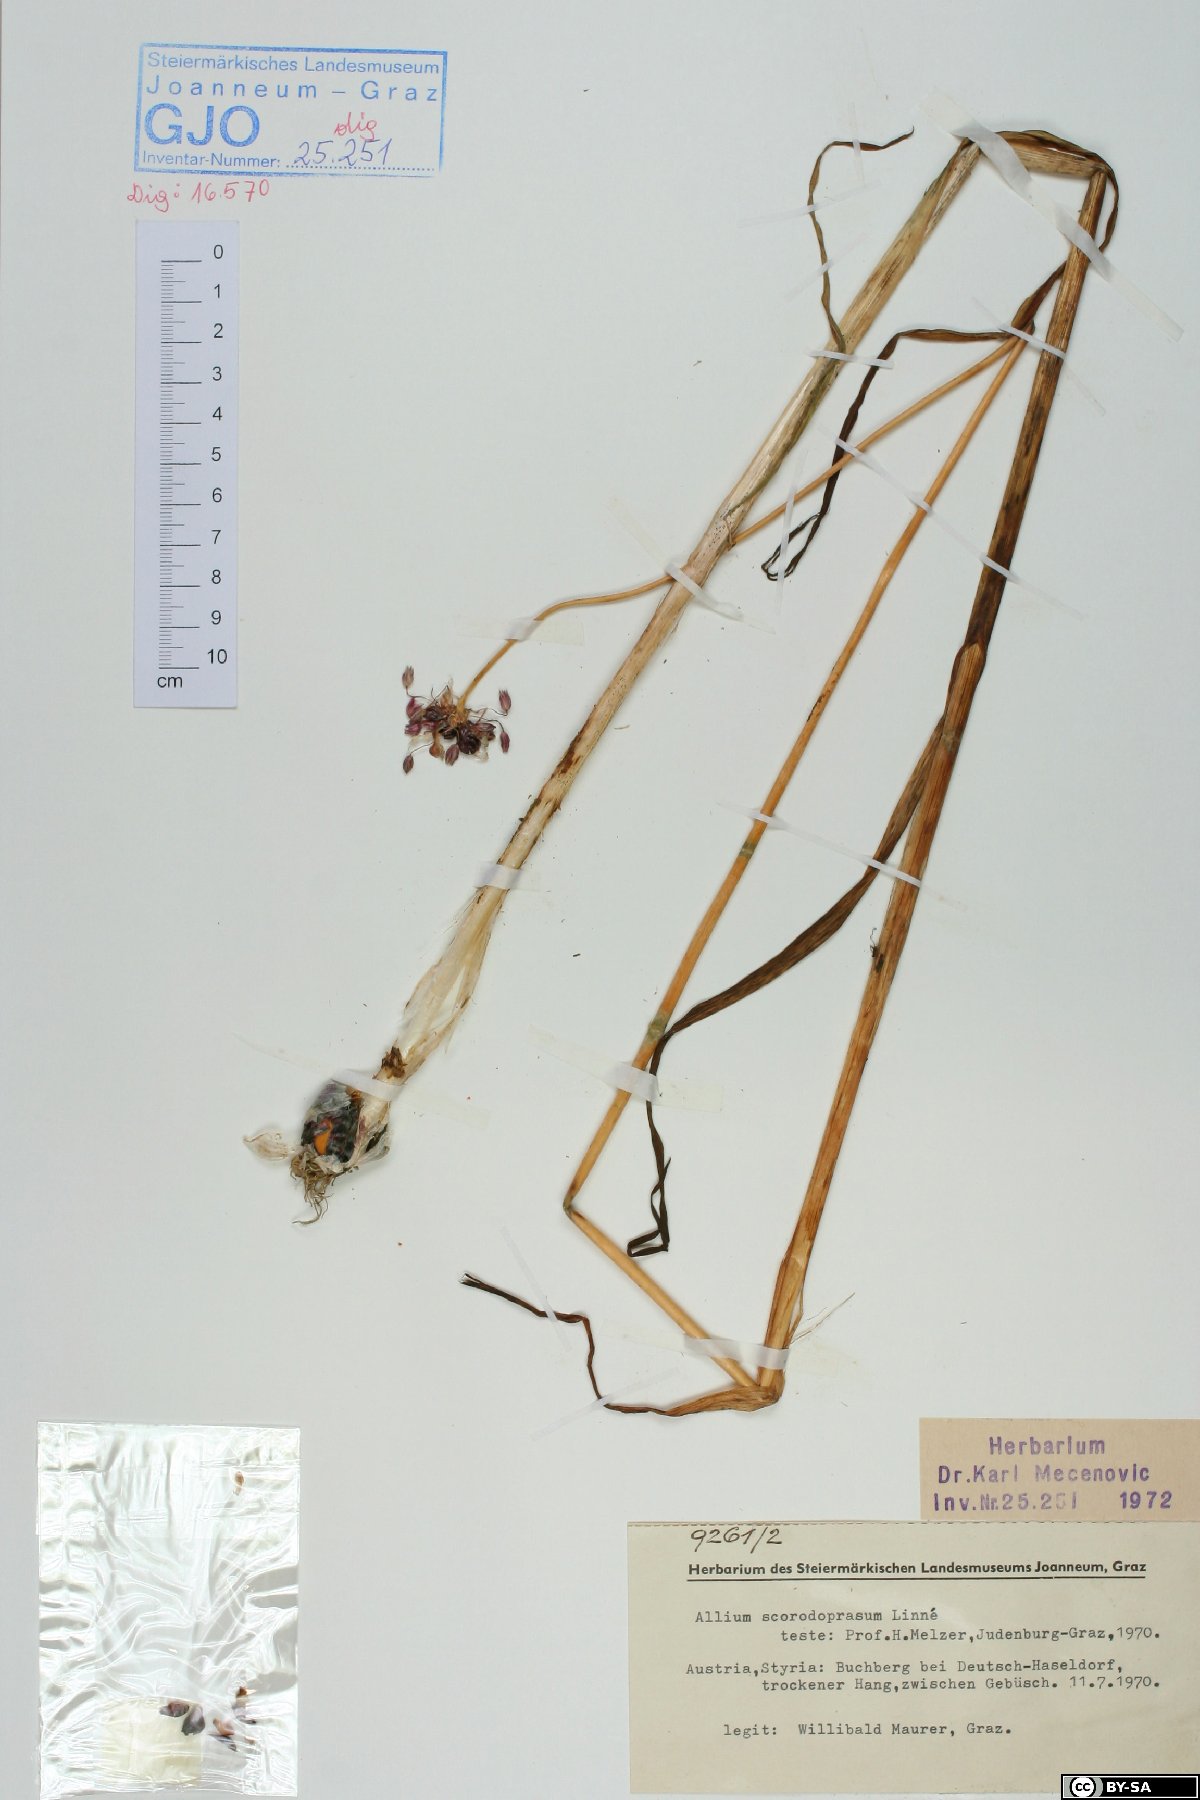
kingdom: Plantae
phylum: Tracheophyta
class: Liliopsida
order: Asparagales
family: Amaryllidaceae
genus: Allium
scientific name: Allium scorodoprasum
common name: Sand leek
